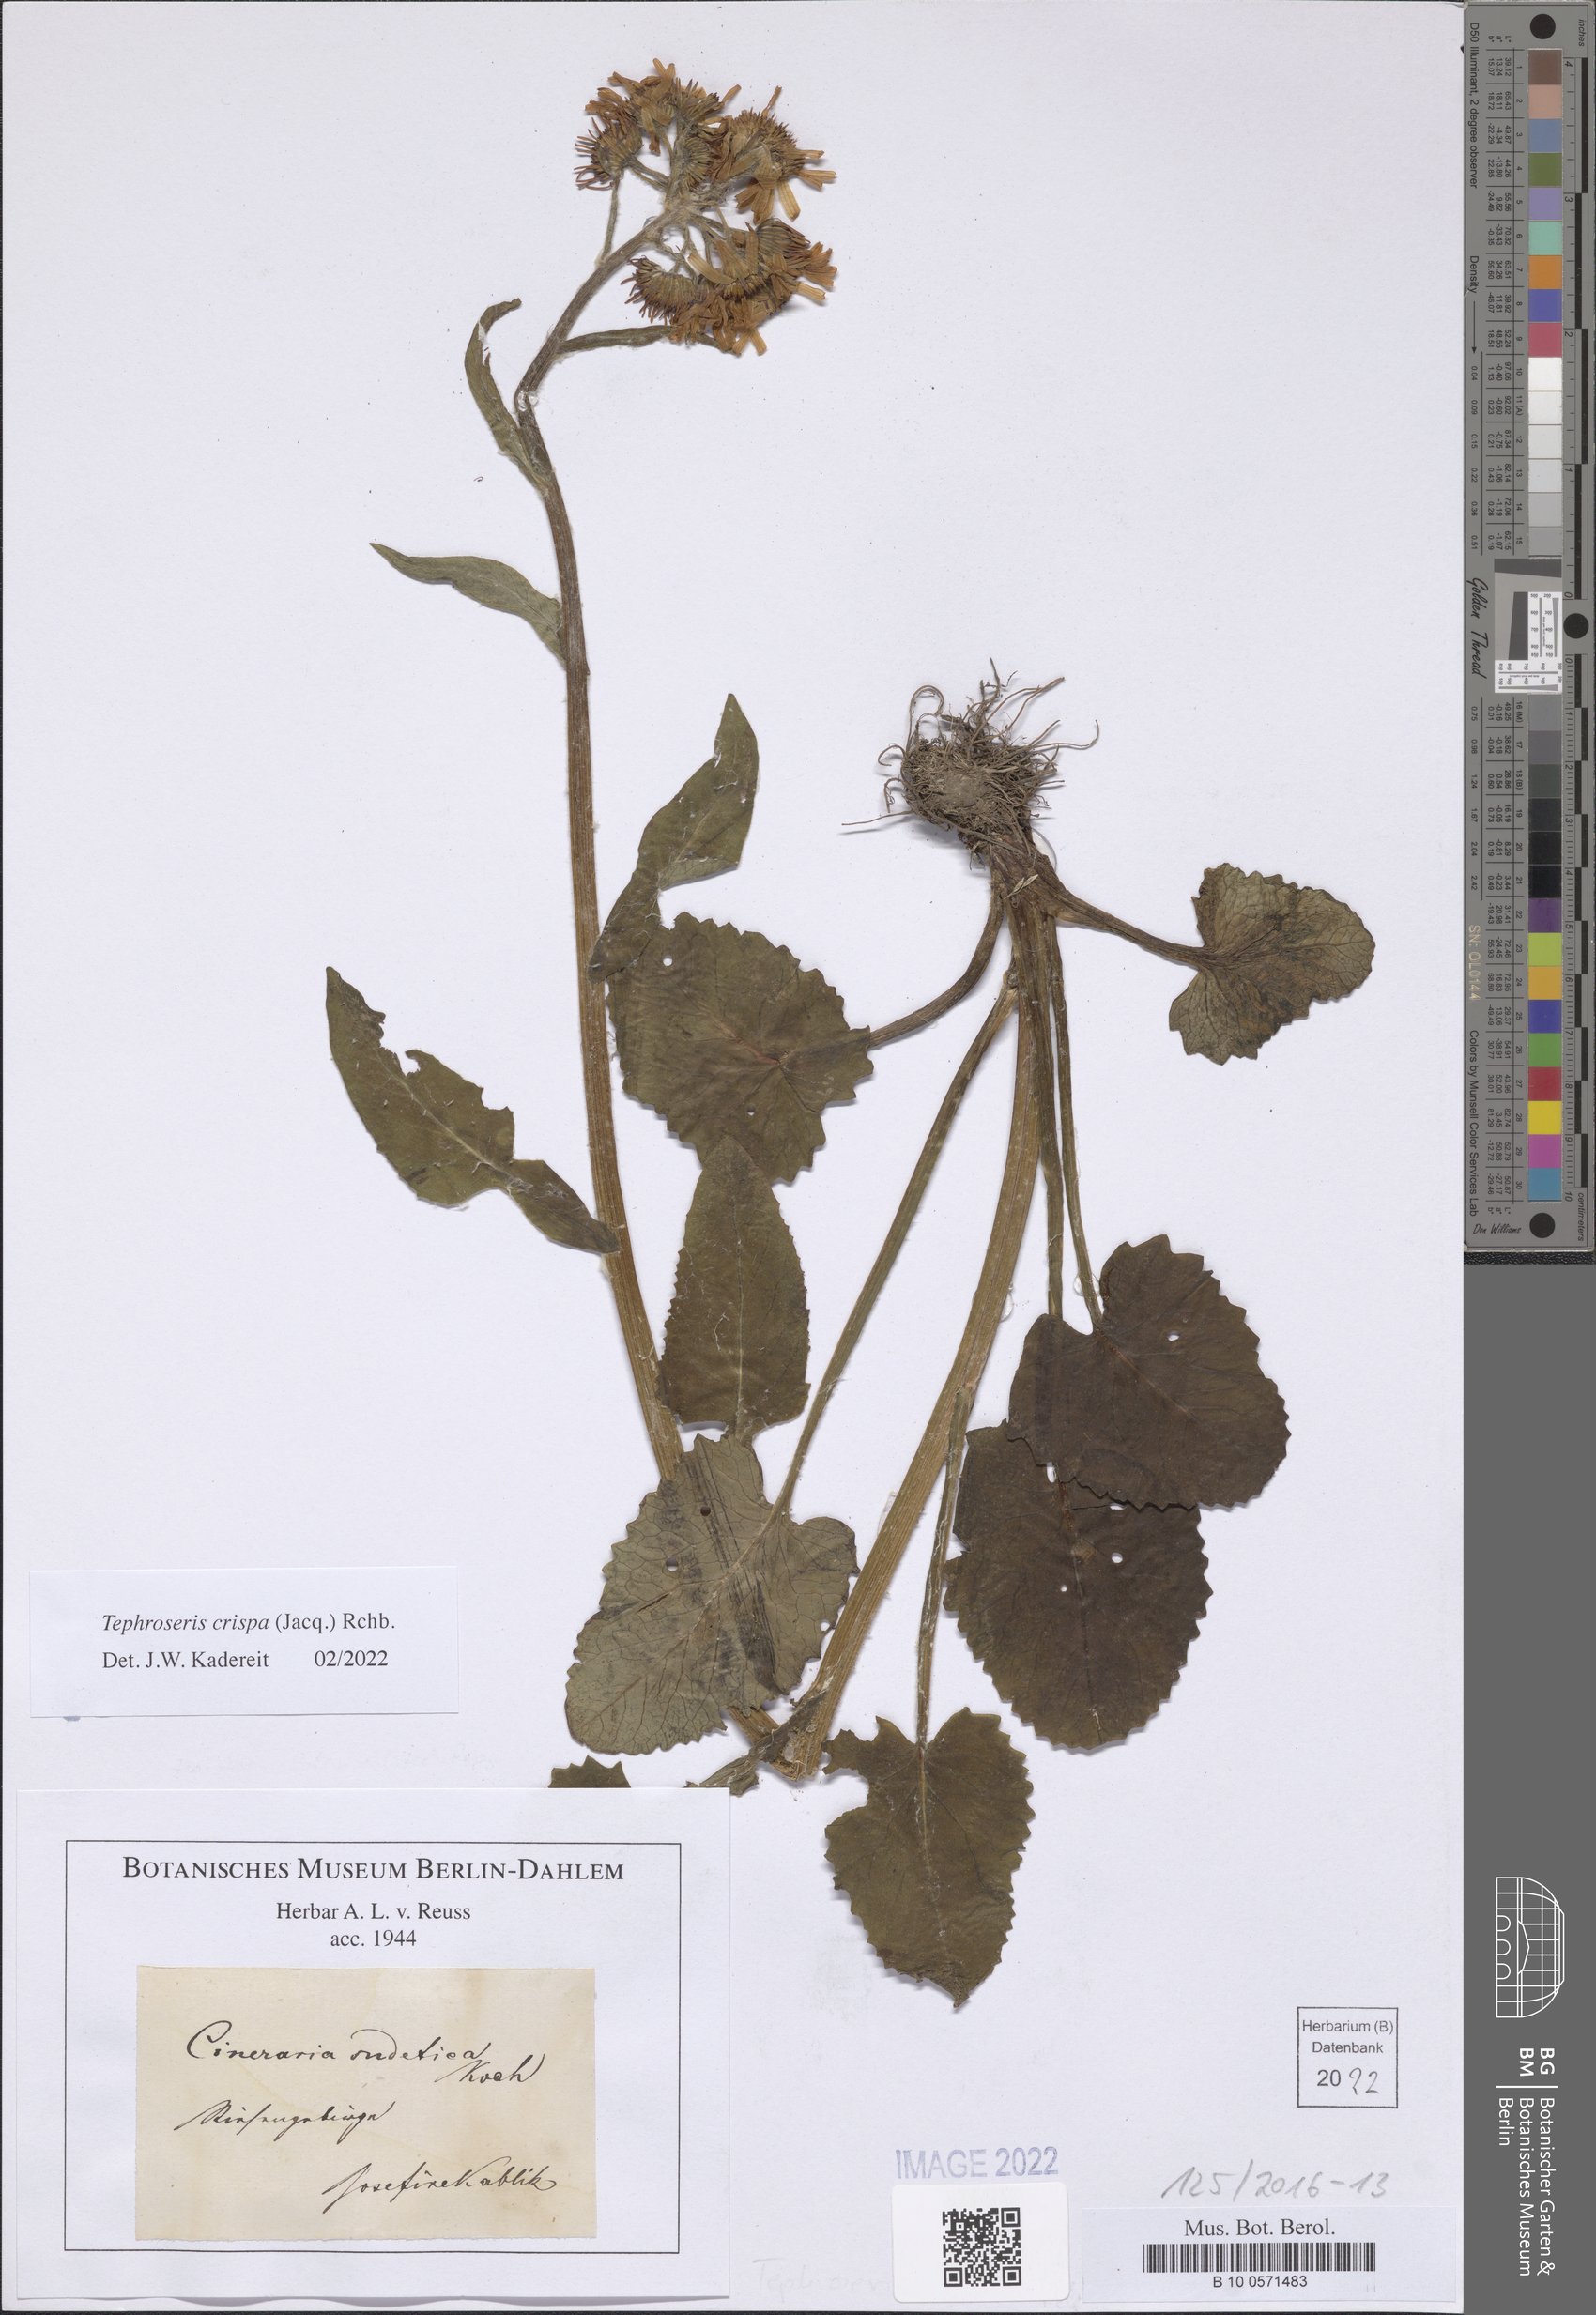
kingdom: Plantae
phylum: Tracheophyta
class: Magnoliopsida
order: Asterales
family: Asteraceae
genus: Tephroseris
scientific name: Tephroseris crispa
